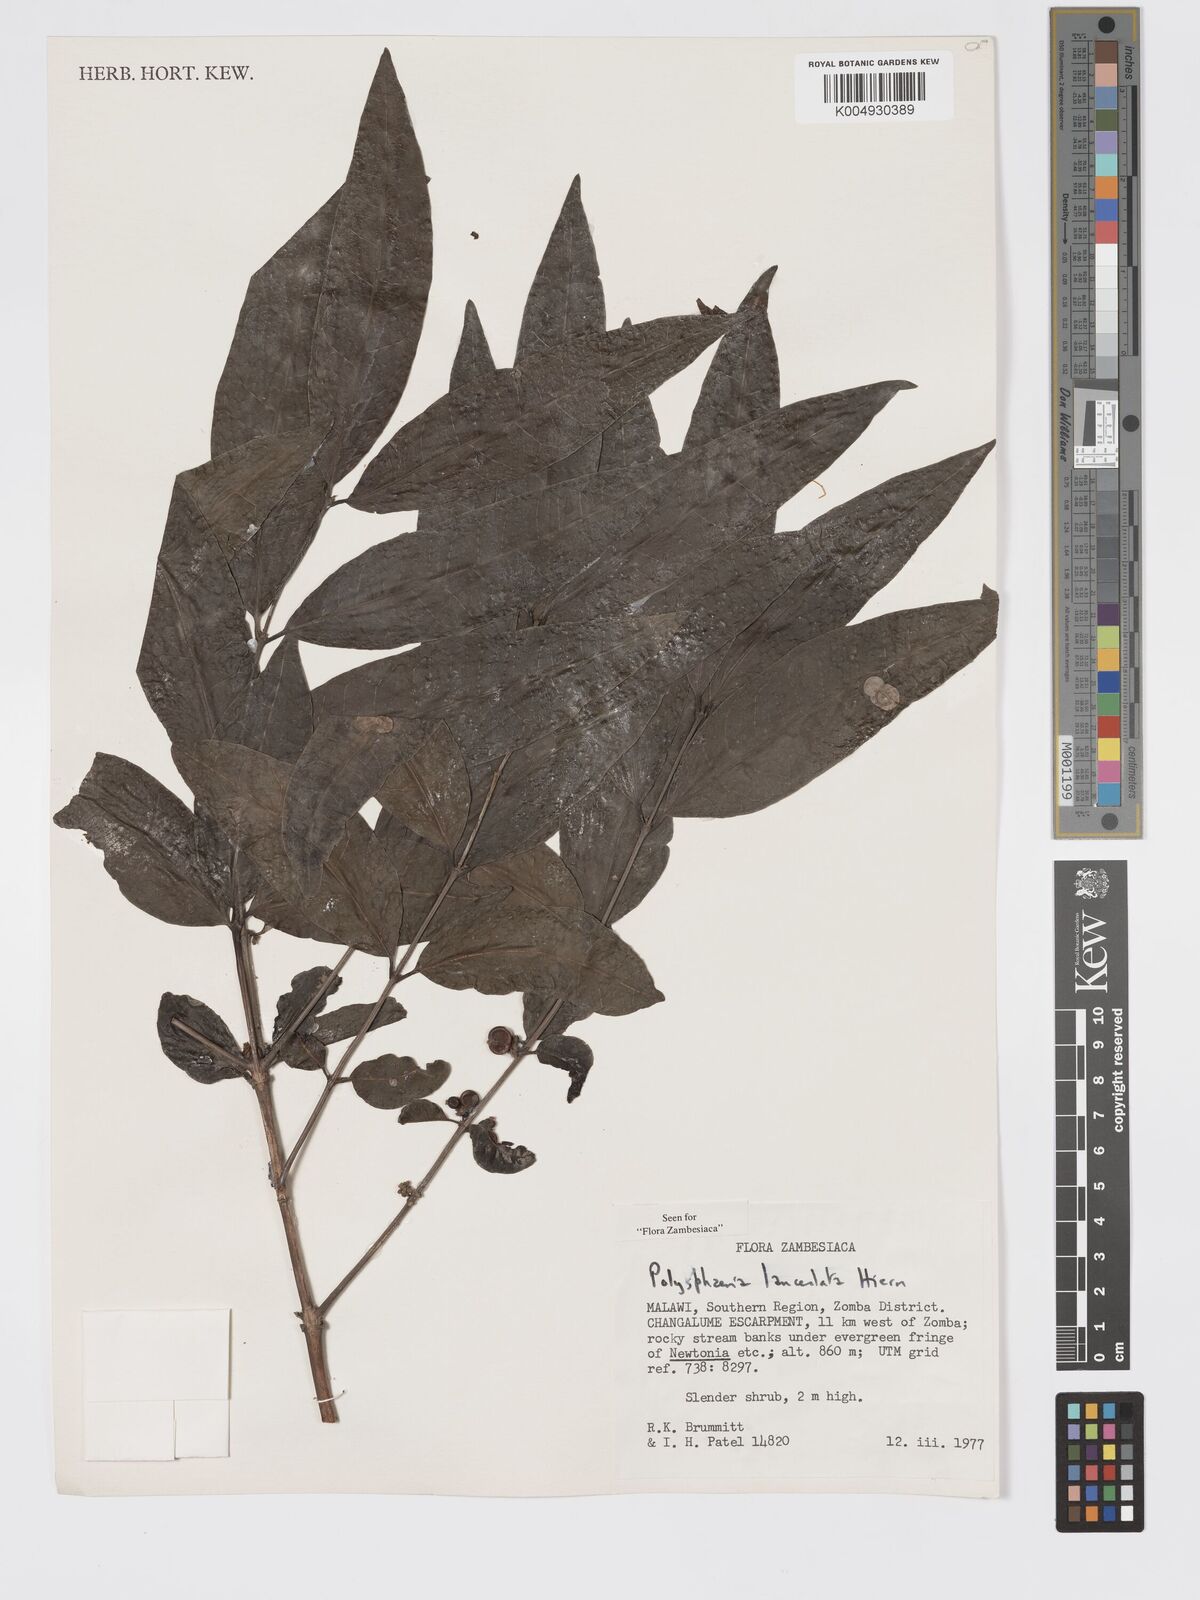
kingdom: Plantae
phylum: Tracheophyta
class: Magnoliopsida
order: Gentianales
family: Rubiaceae
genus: Polysphaeria
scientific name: Polysphaeria lanceolata
